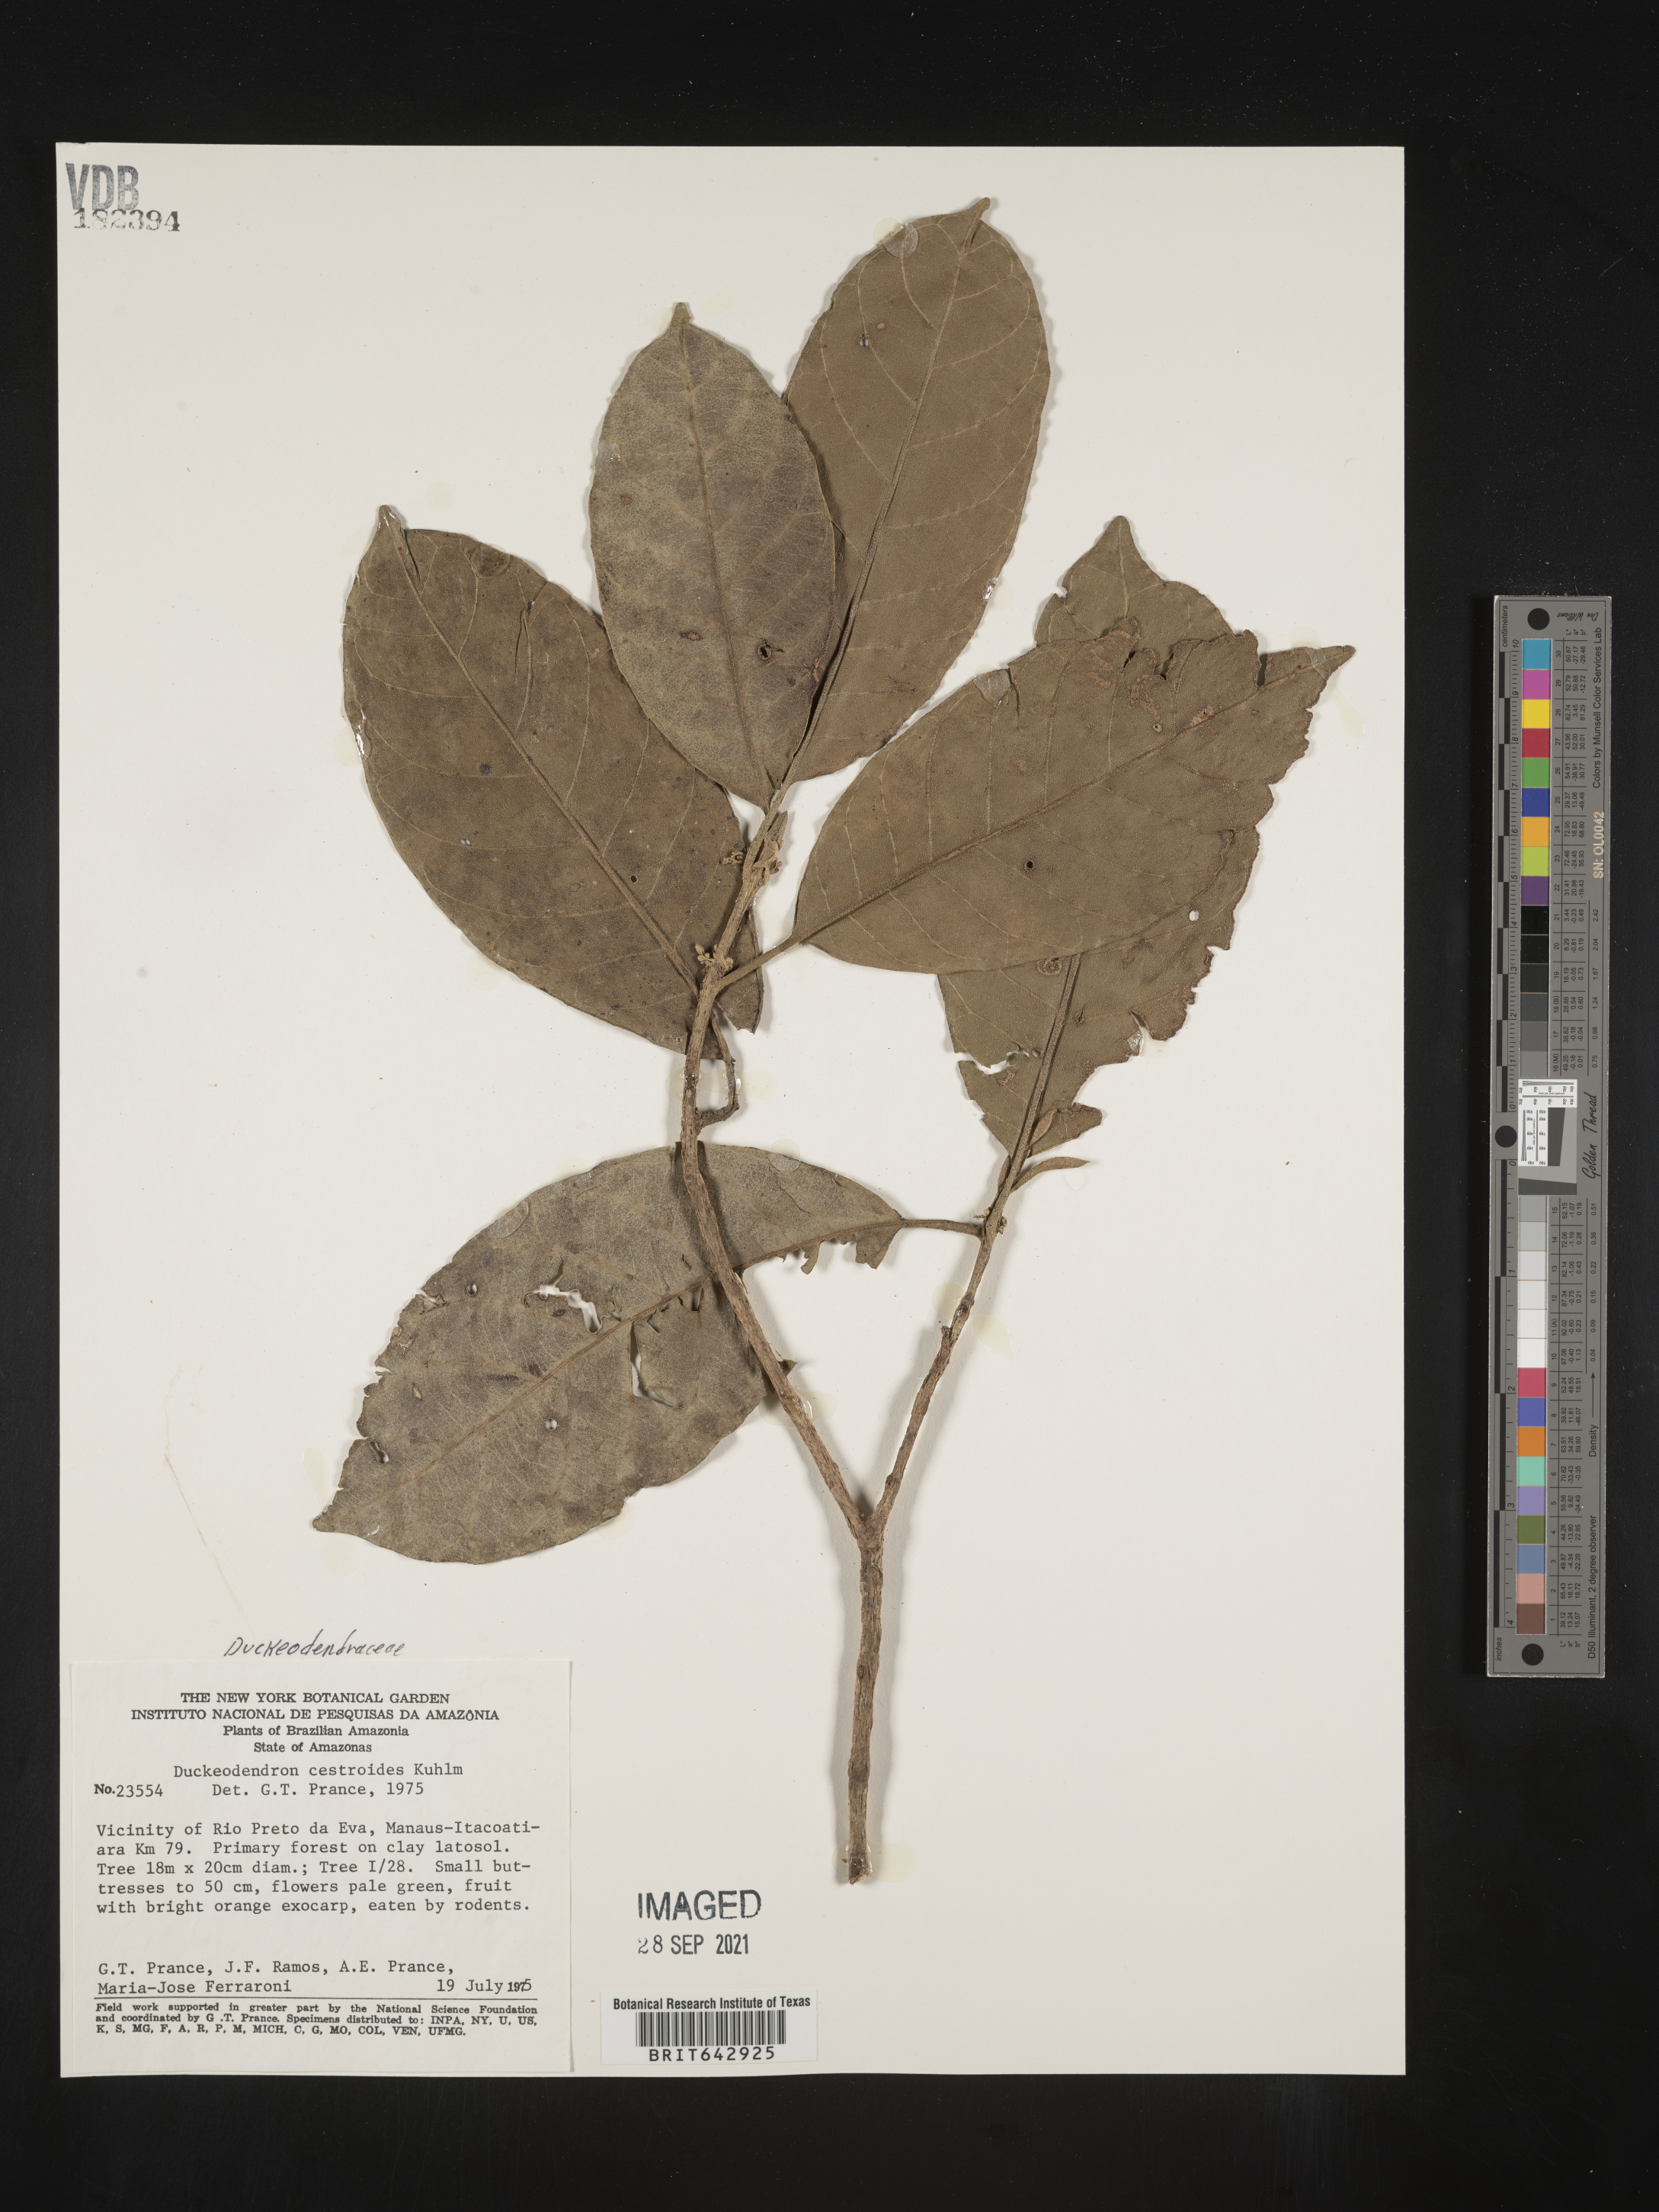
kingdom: Plantae
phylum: Tracheophyta
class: Magnoliopsida
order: Solanales
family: Solanaceae
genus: Duckeodendron
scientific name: Duckeodendron cestroides
